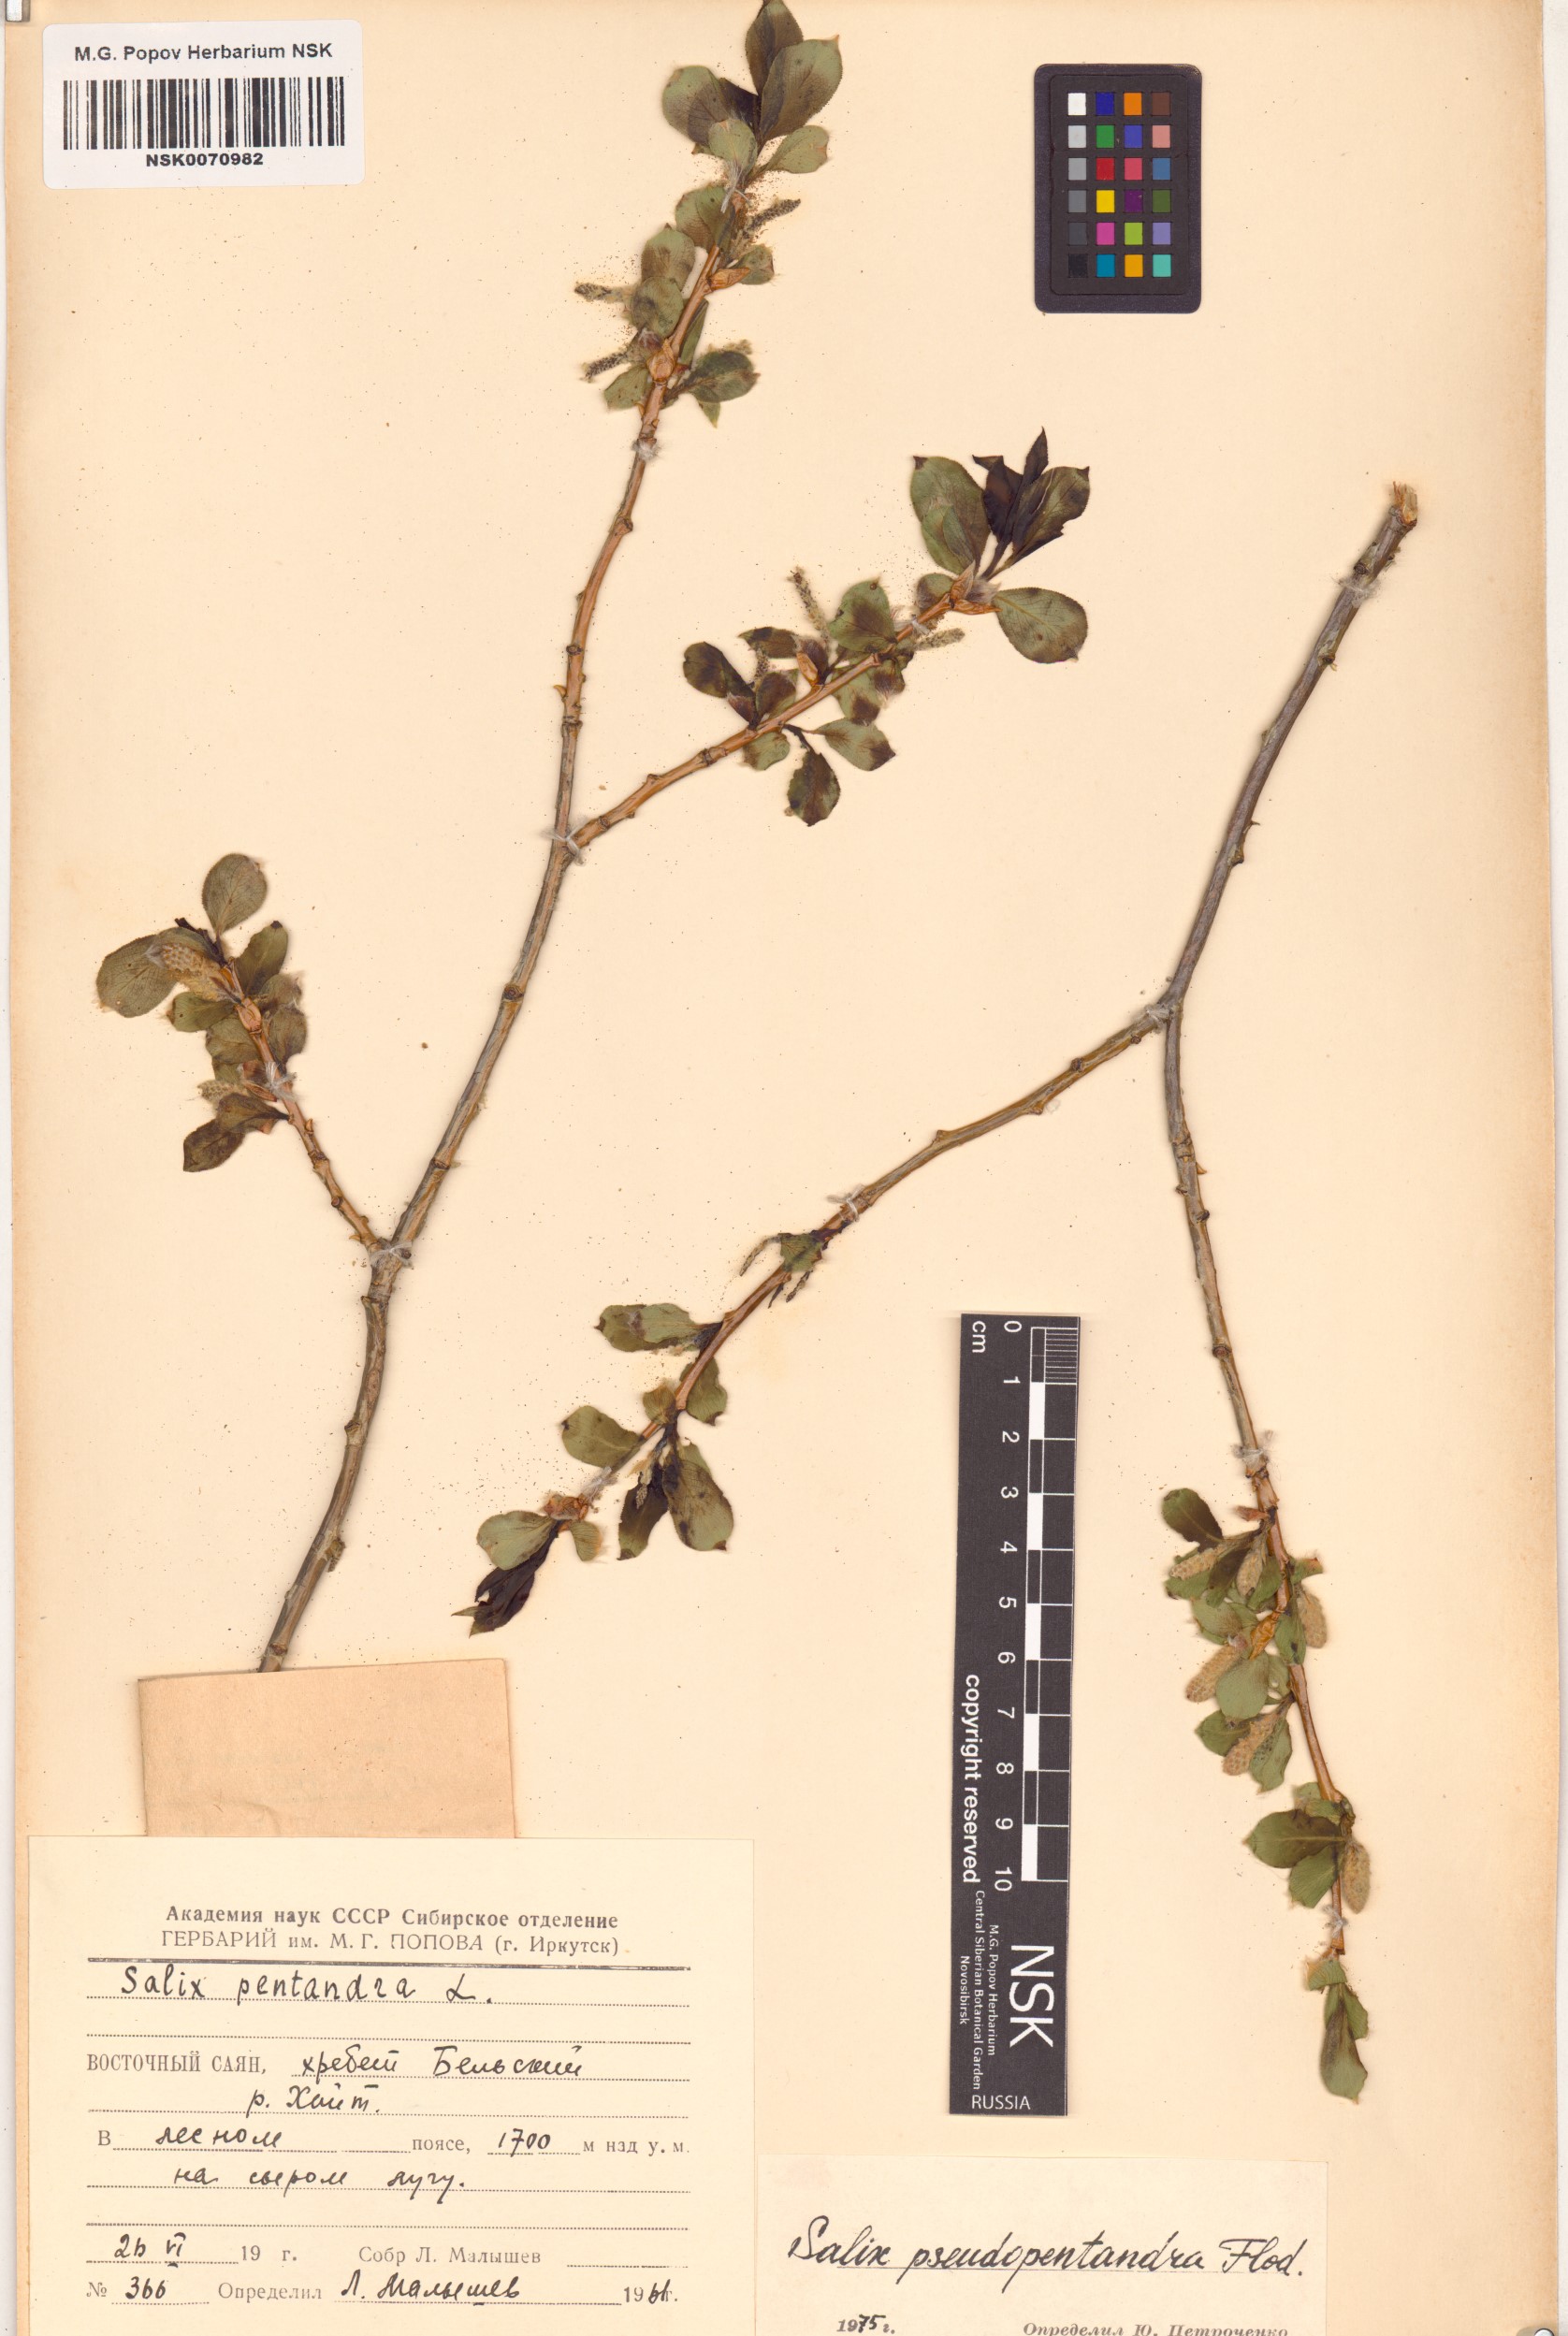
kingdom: Plantae
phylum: Tracheophyta
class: Magnoliopsida
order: Malpighiales
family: Salicaceae
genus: Salix
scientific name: Salix pseudopentandra
